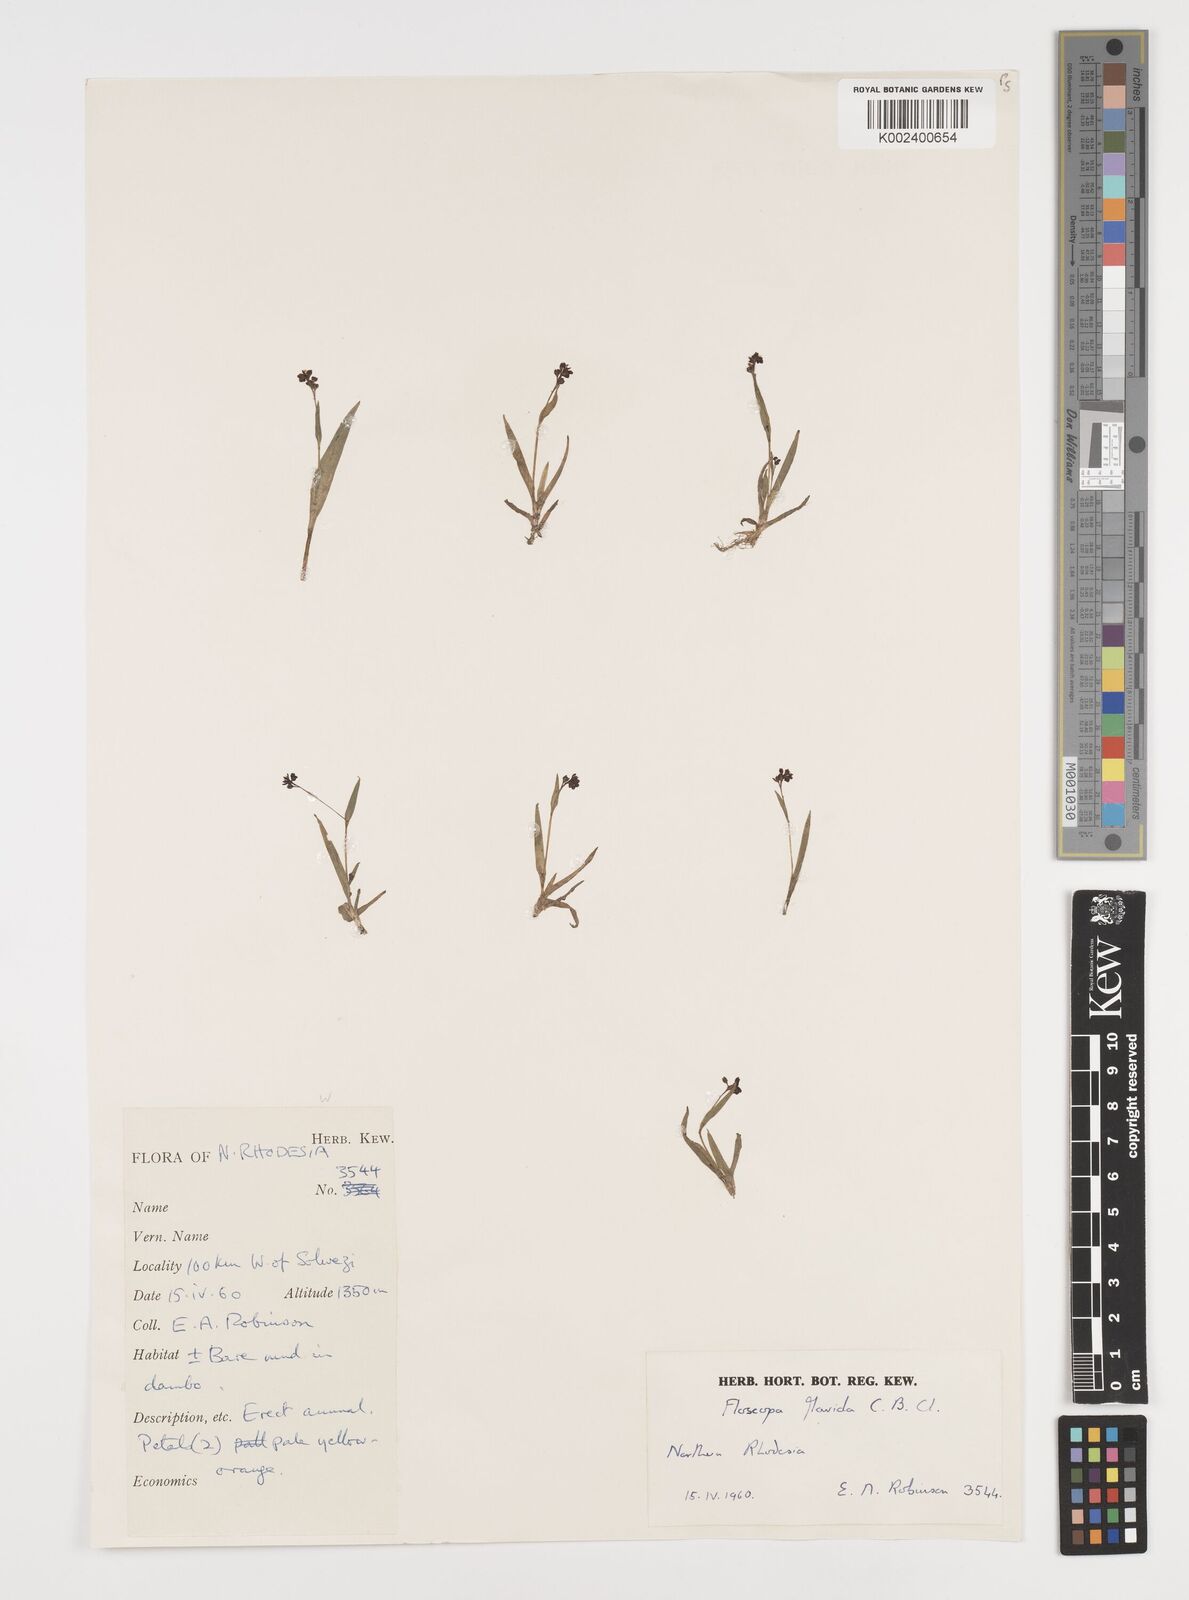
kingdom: Plantae
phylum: Tracheophyta
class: Liliopsida
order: Commelinales
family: Commelinaceae
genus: Floscopa
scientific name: Floscopa flavida
